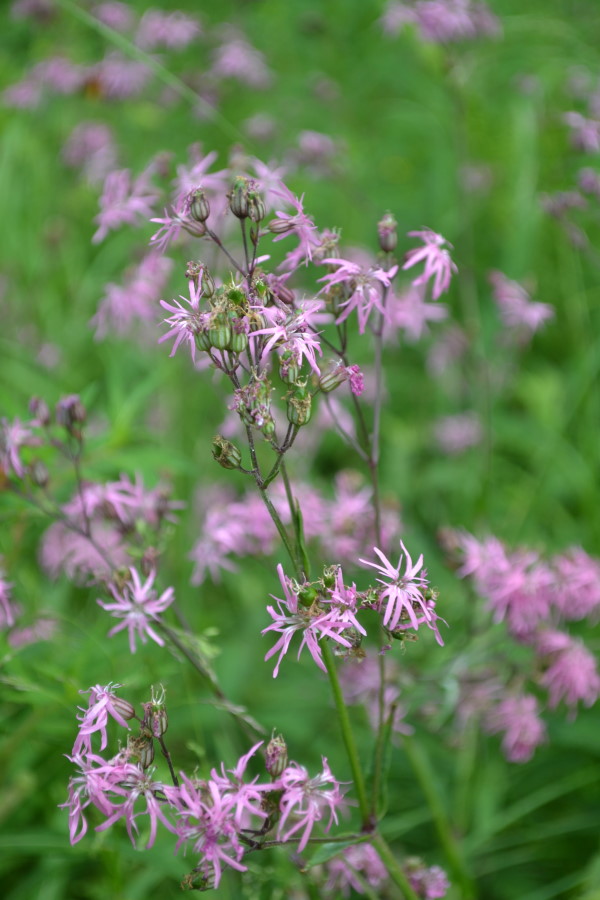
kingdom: Plantae
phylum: Tracheophyta
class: Magnoliopsida
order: Caryophyllales
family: Caryophyllaceae
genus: Silene
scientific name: Silene flos-cuculi
